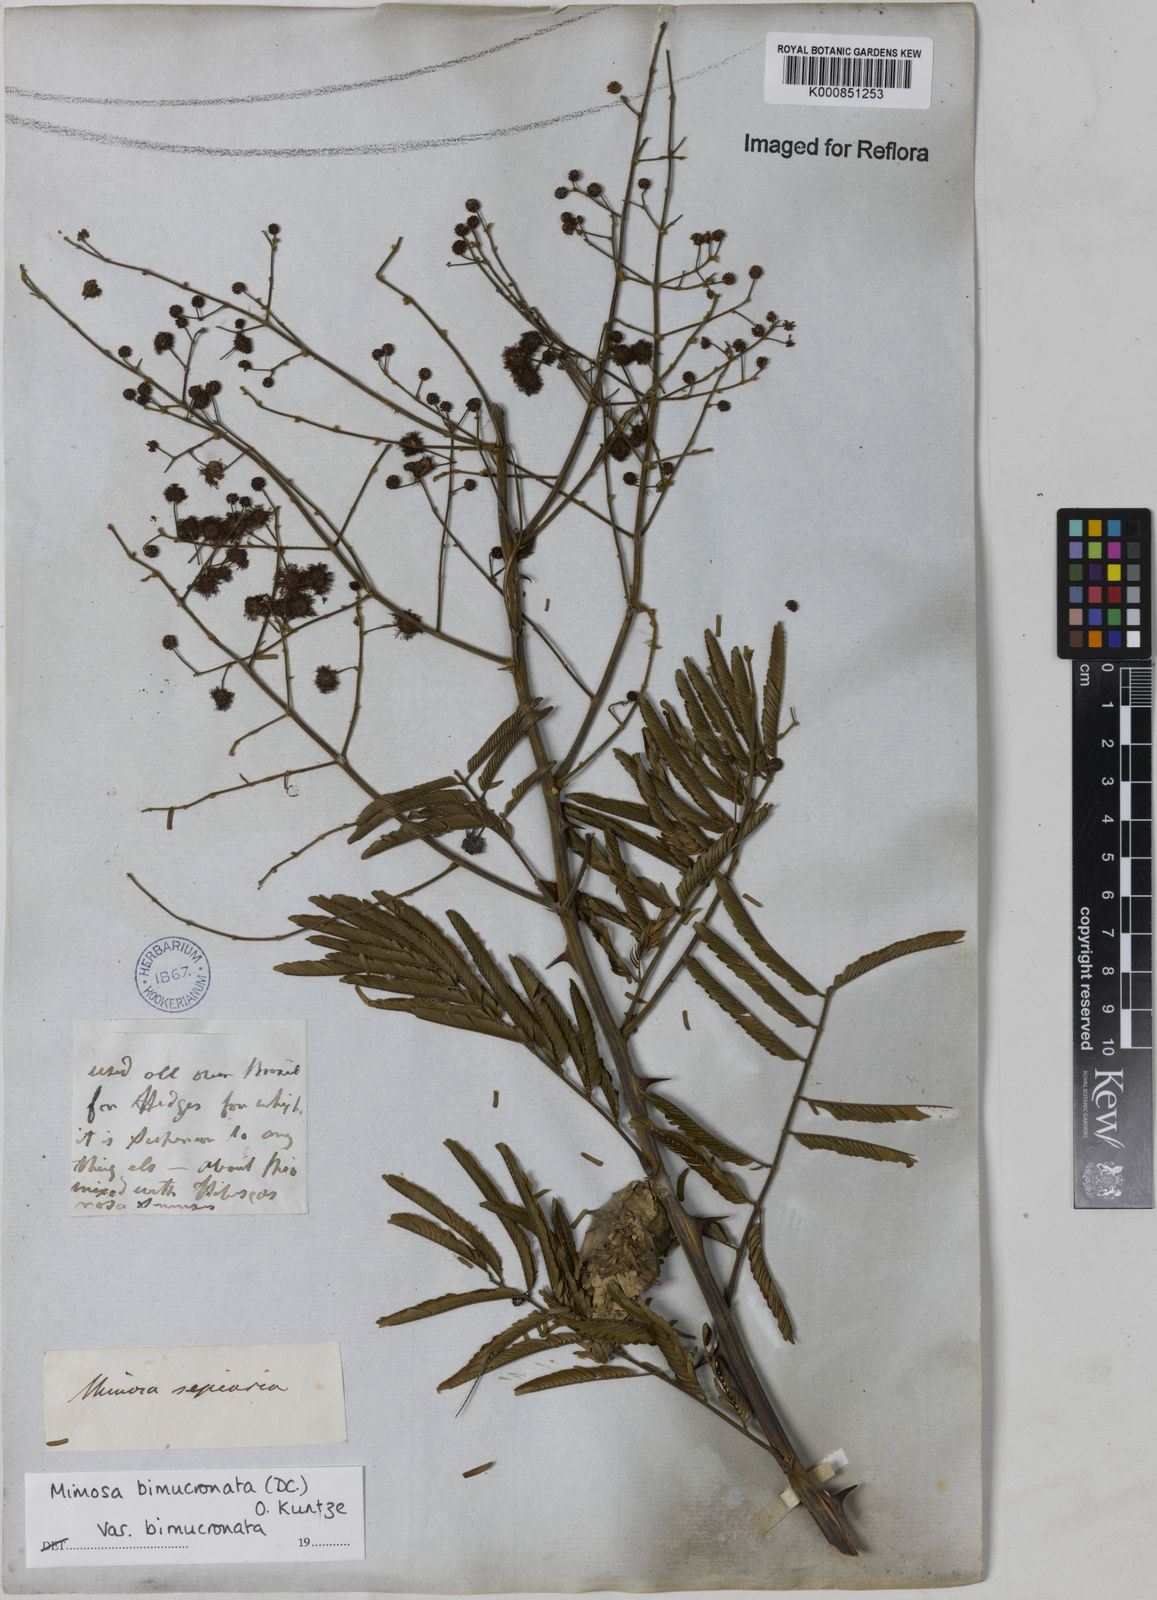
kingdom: Plantae
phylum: Tracheophyta
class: Magnoliopsida
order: Fabales
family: Fabaceae
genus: Mimosa
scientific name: Mimosa bimucronata
